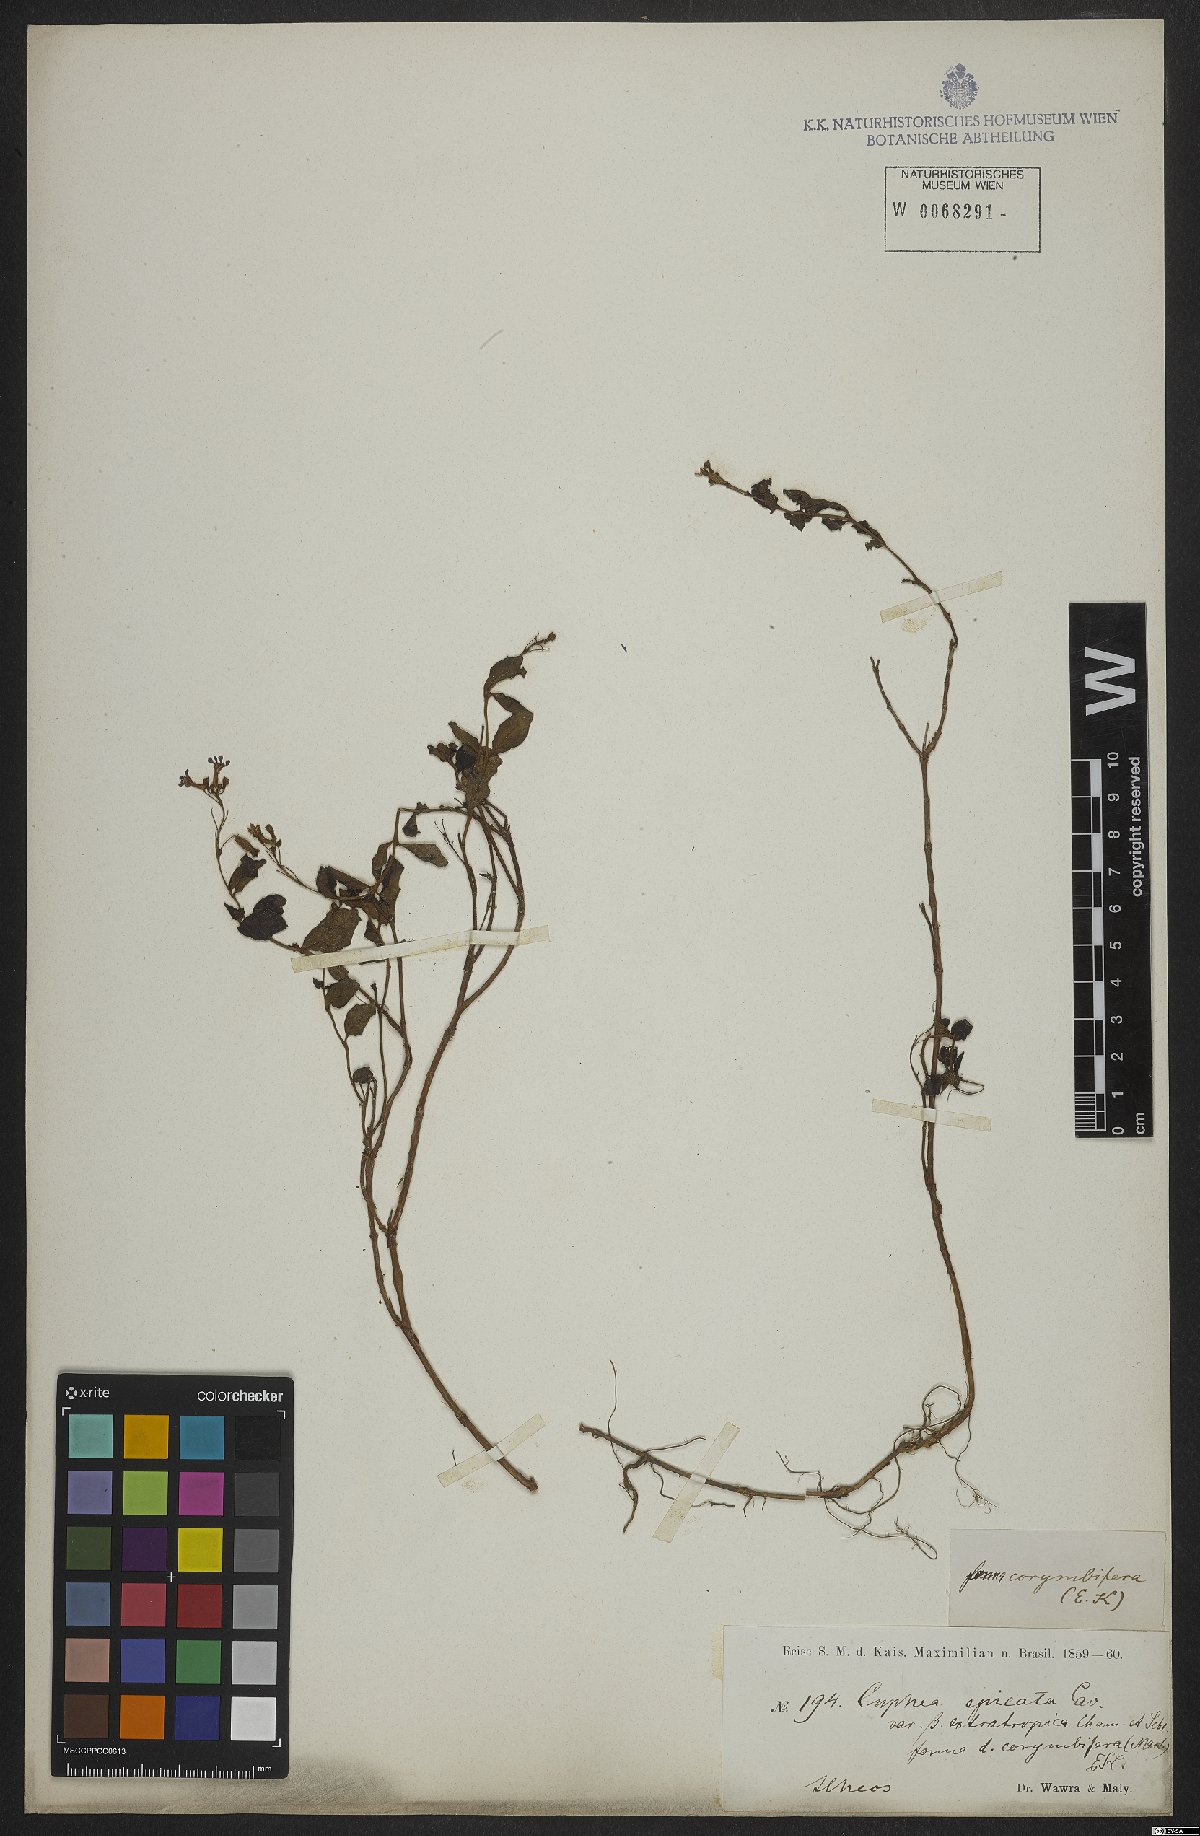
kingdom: Plantae
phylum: Tracheophyta
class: Magnoliopsida
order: Myrtales
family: Lythraceae
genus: Cuphea
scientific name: Cuphea racemosa
